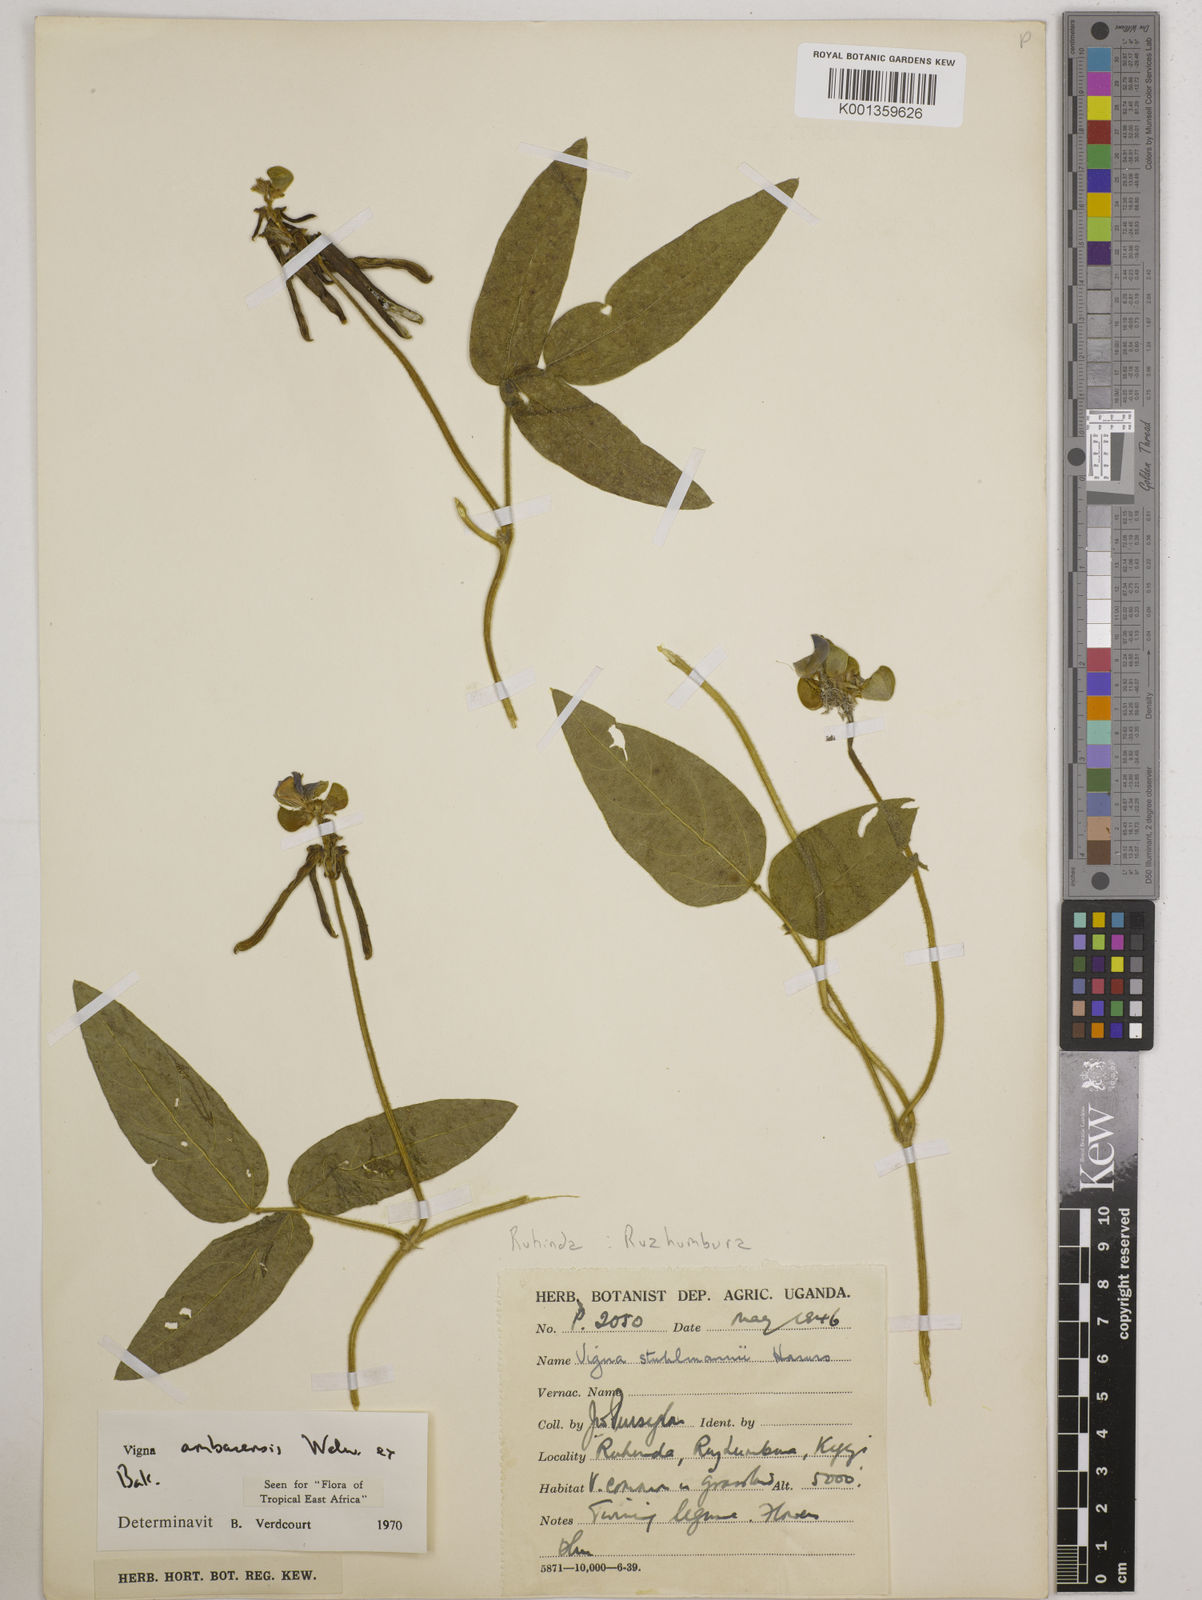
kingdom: Plantae
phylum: Tracheophyta
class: Magnoliopsida
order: Fabales
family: Fabaceae
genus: Vigna
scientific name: Vigna ambacensis
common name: Tsarkiyan zomo
